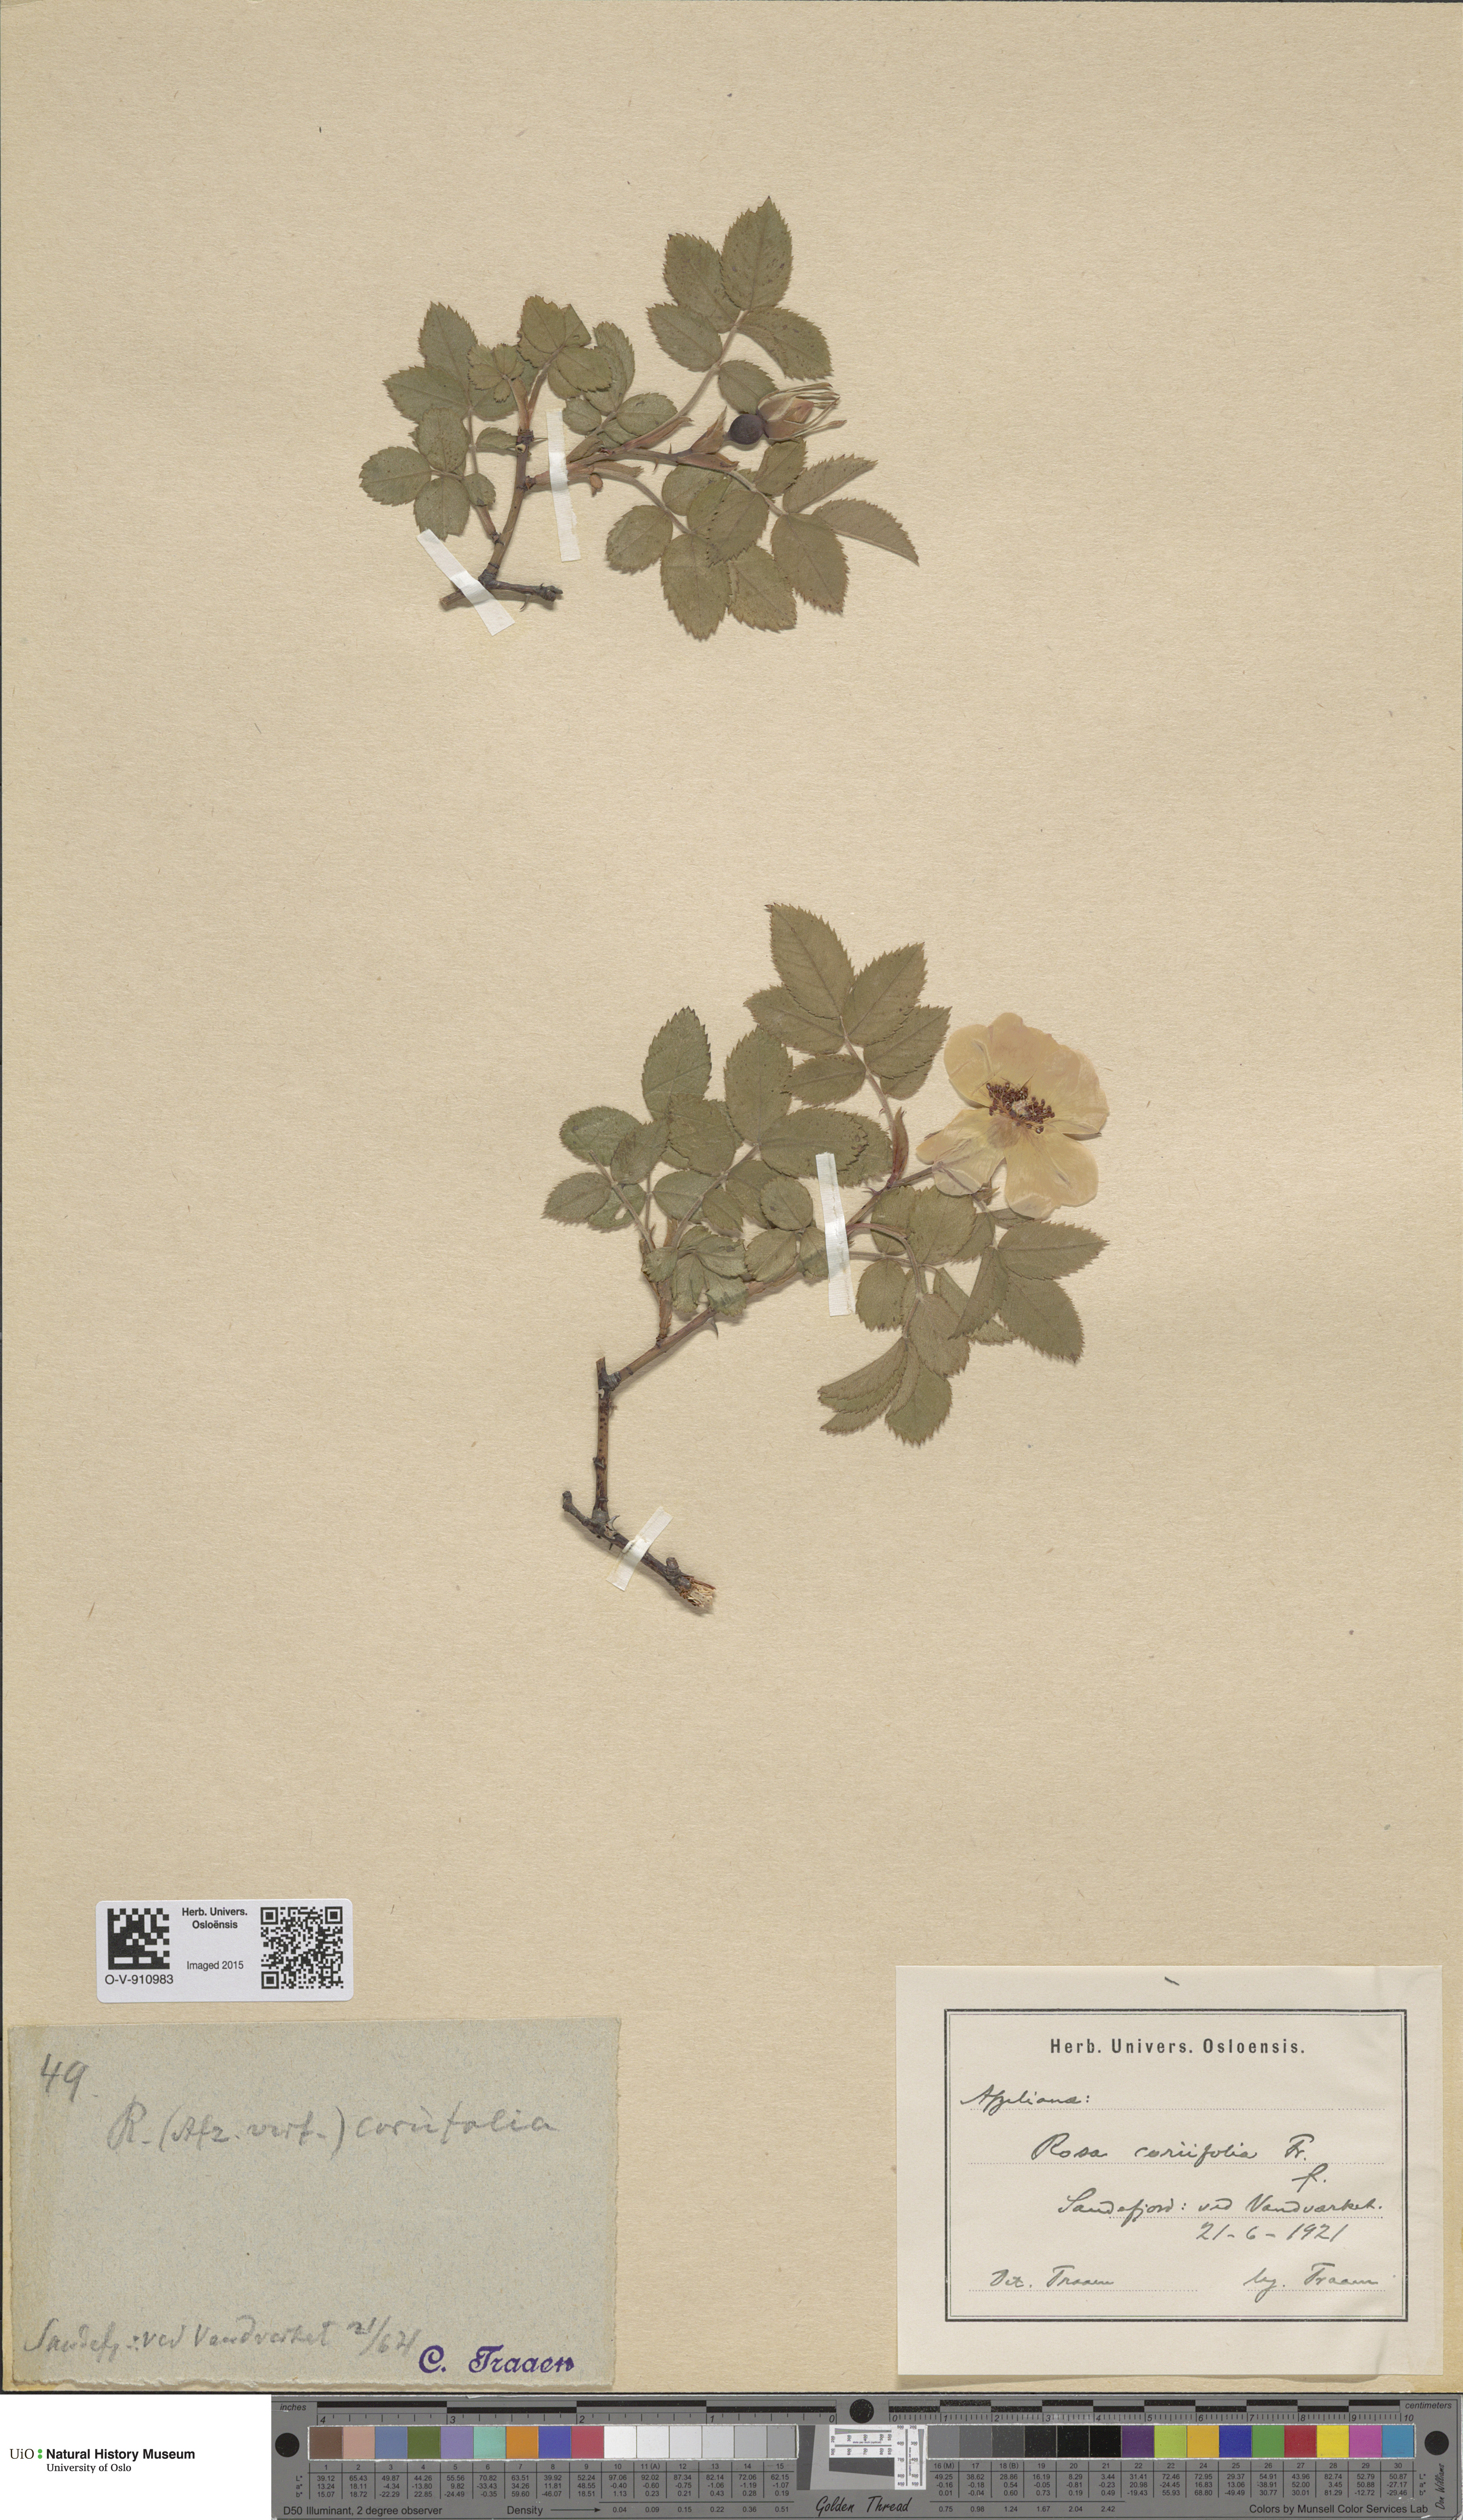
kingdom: Plantae
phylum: Tracheophyta
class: Magnoliopsida
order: Rosales
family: Rosaceae
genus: Rosa
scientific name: Rosa caesia
